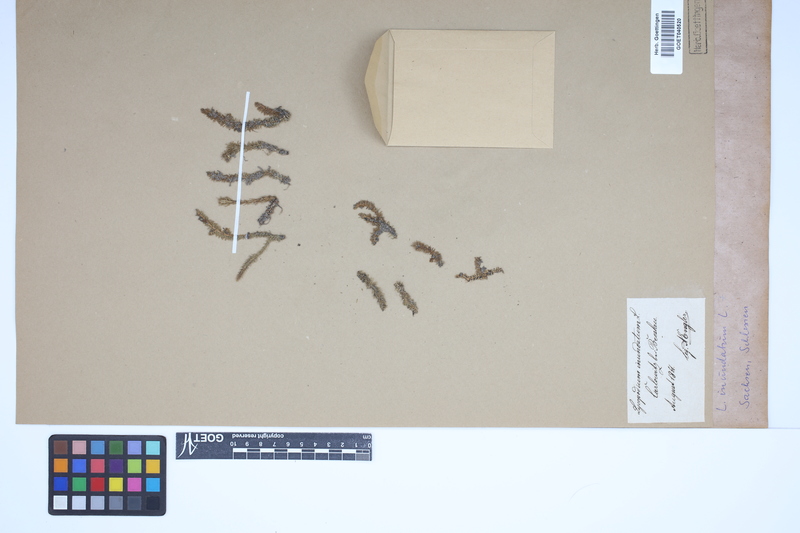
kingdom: Plantae
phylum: Tracheophyta
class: Lycopodiopsida
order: Lycopodiales
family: Lycopodiaceae
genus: Lycopodiella
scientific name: Lycopodiella inundata
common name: Marsh clubmoss
